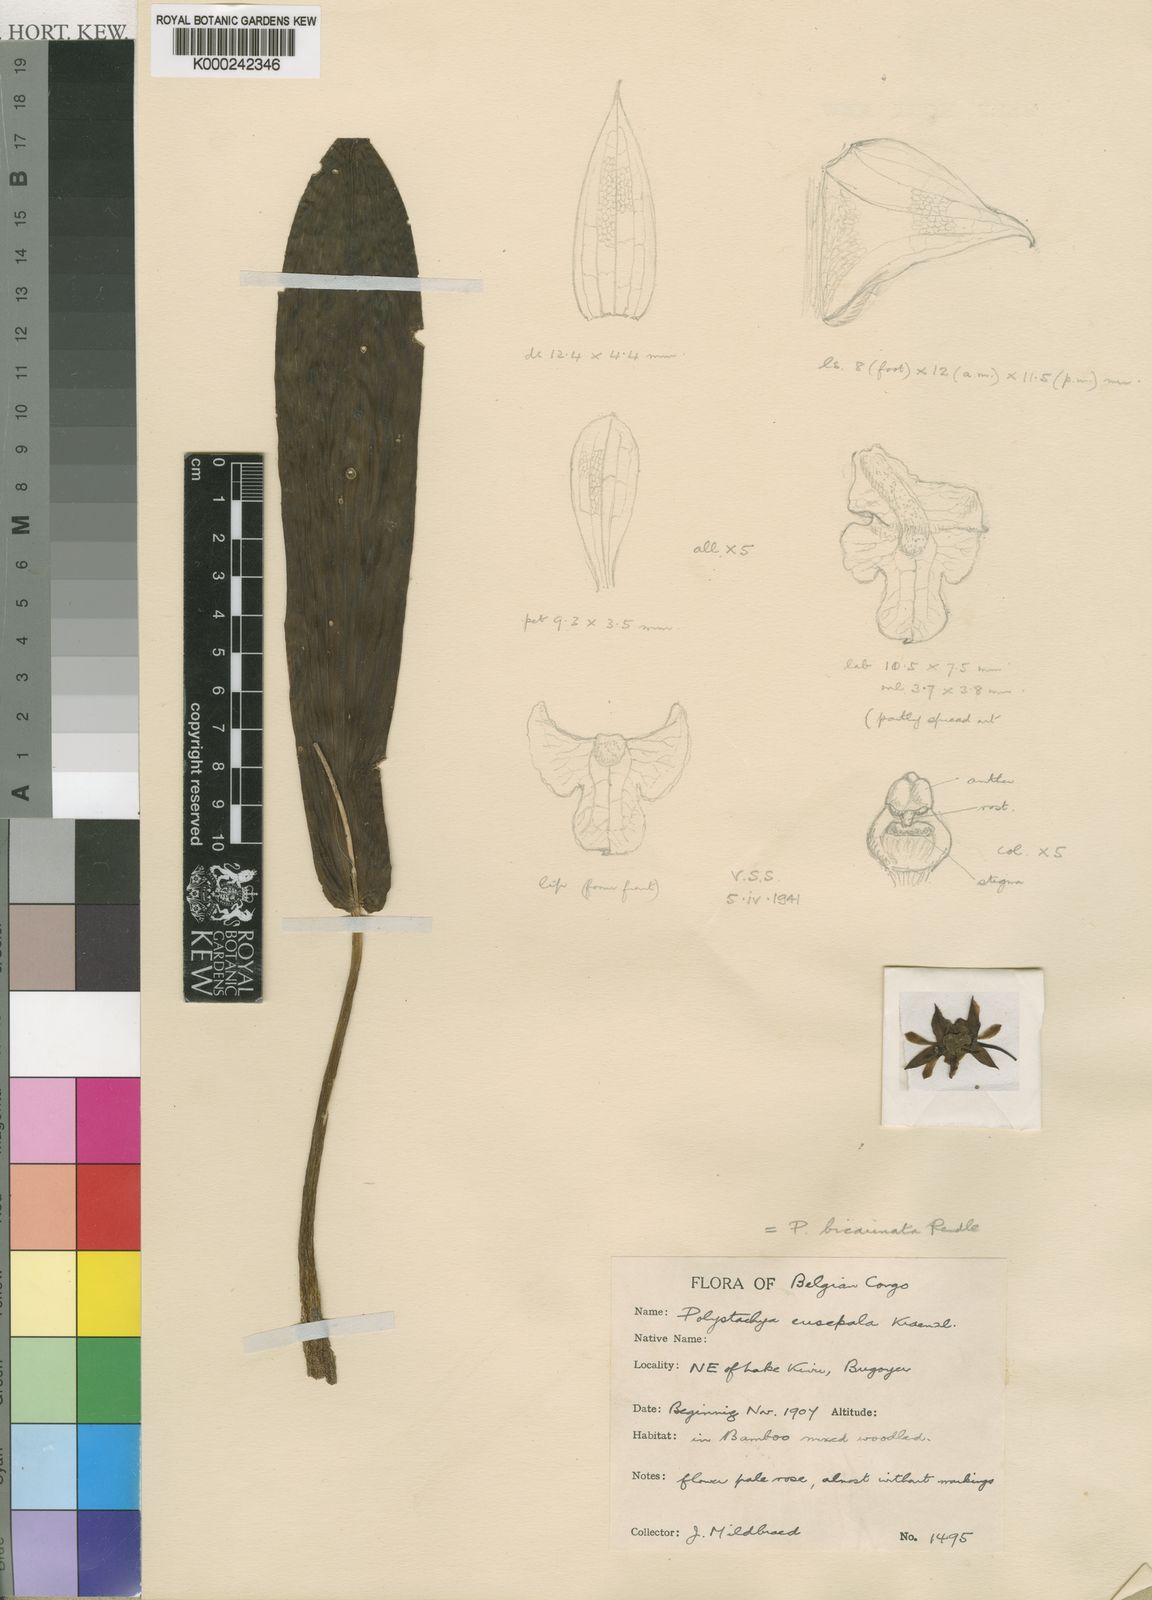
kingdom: Plantae
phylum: Tracheophyta
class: Liliopsida
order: Asparagales
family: Orchidaceae
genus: Polystachya
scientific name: Polystachya bicarinata
